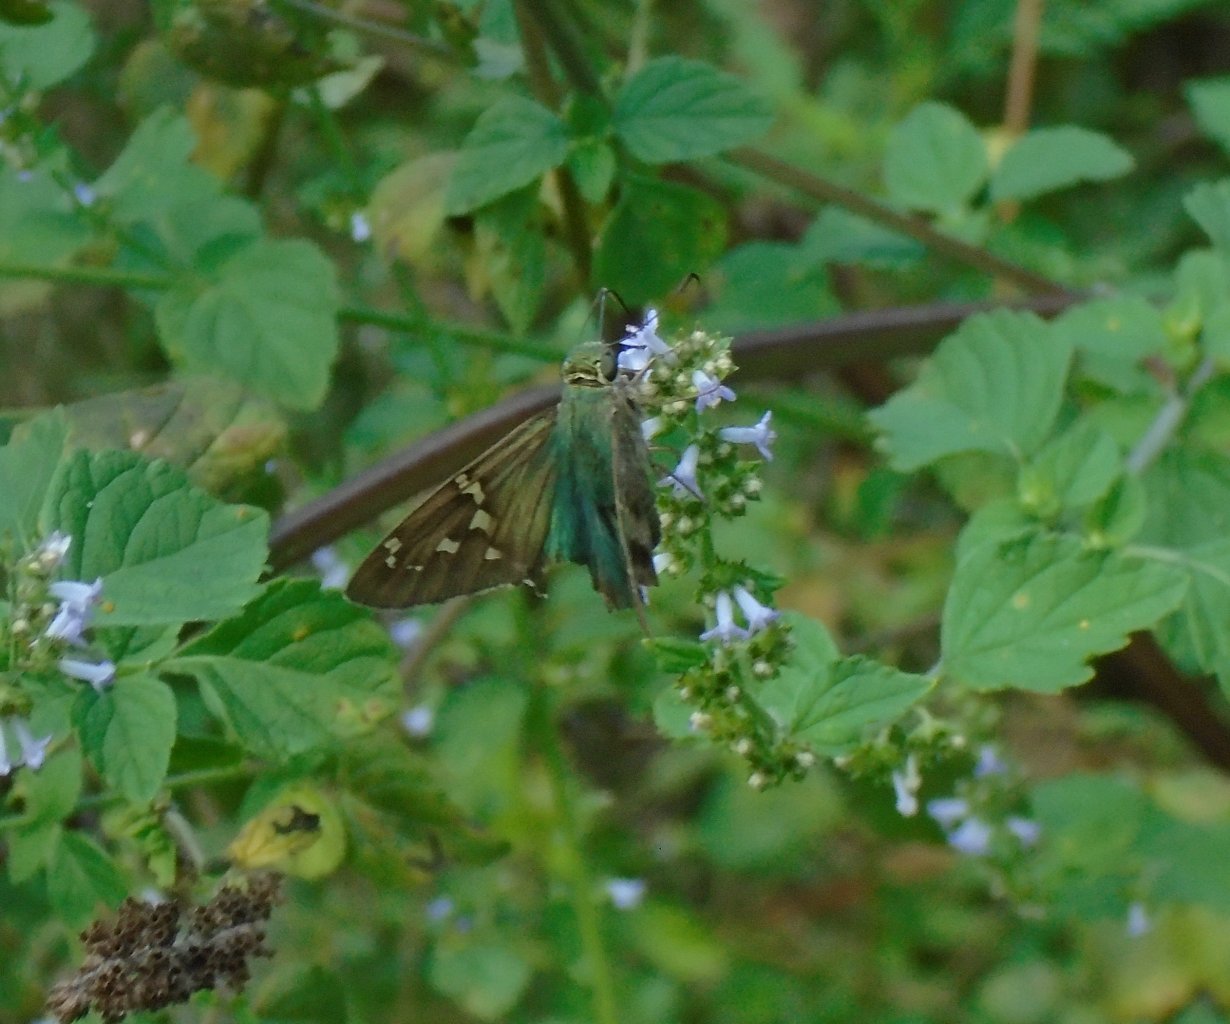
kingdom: Animalia
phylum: Arthropoda
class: Insecta
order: Lepidoptera
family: Hesperiidae
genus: Urbanus
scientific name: Urbanus proteus
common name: Long-tailed Skipper
